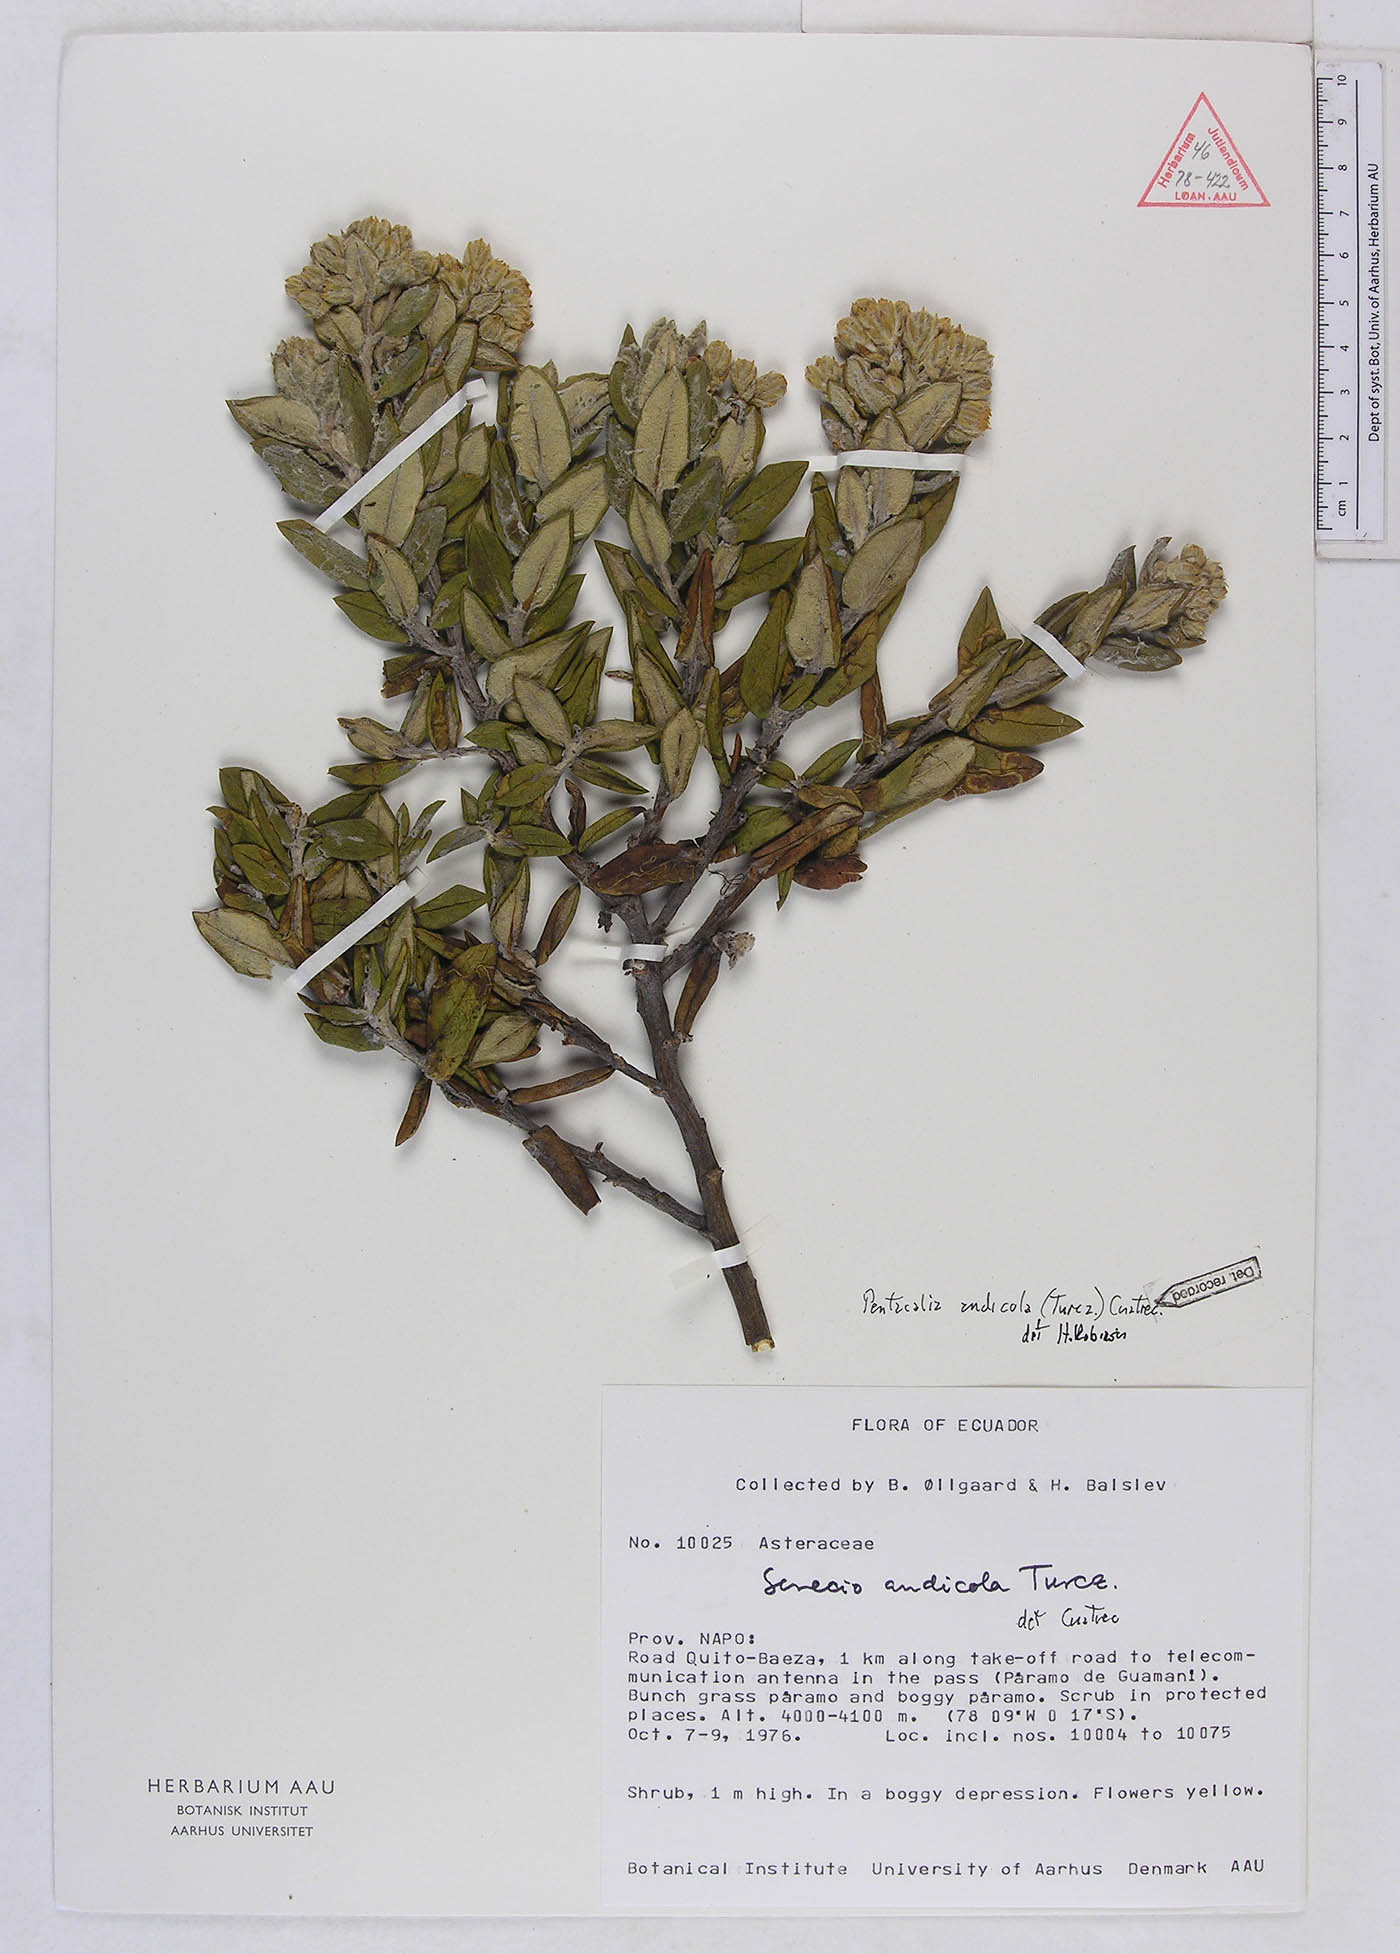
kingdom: Plantae
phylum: Tracheophyta
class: Magnoliopsida
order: Asterales
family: Asteraceae
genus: Monticalia
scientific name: Monticalia andicola
